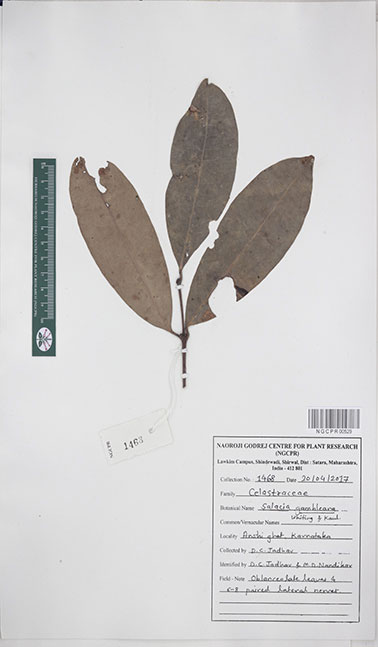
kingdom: Plantae
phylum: Tracheophyta
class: Magnoliopsida
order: Celastrales
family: Celastraceae
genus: Salacia
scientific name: Salacia gambleana
